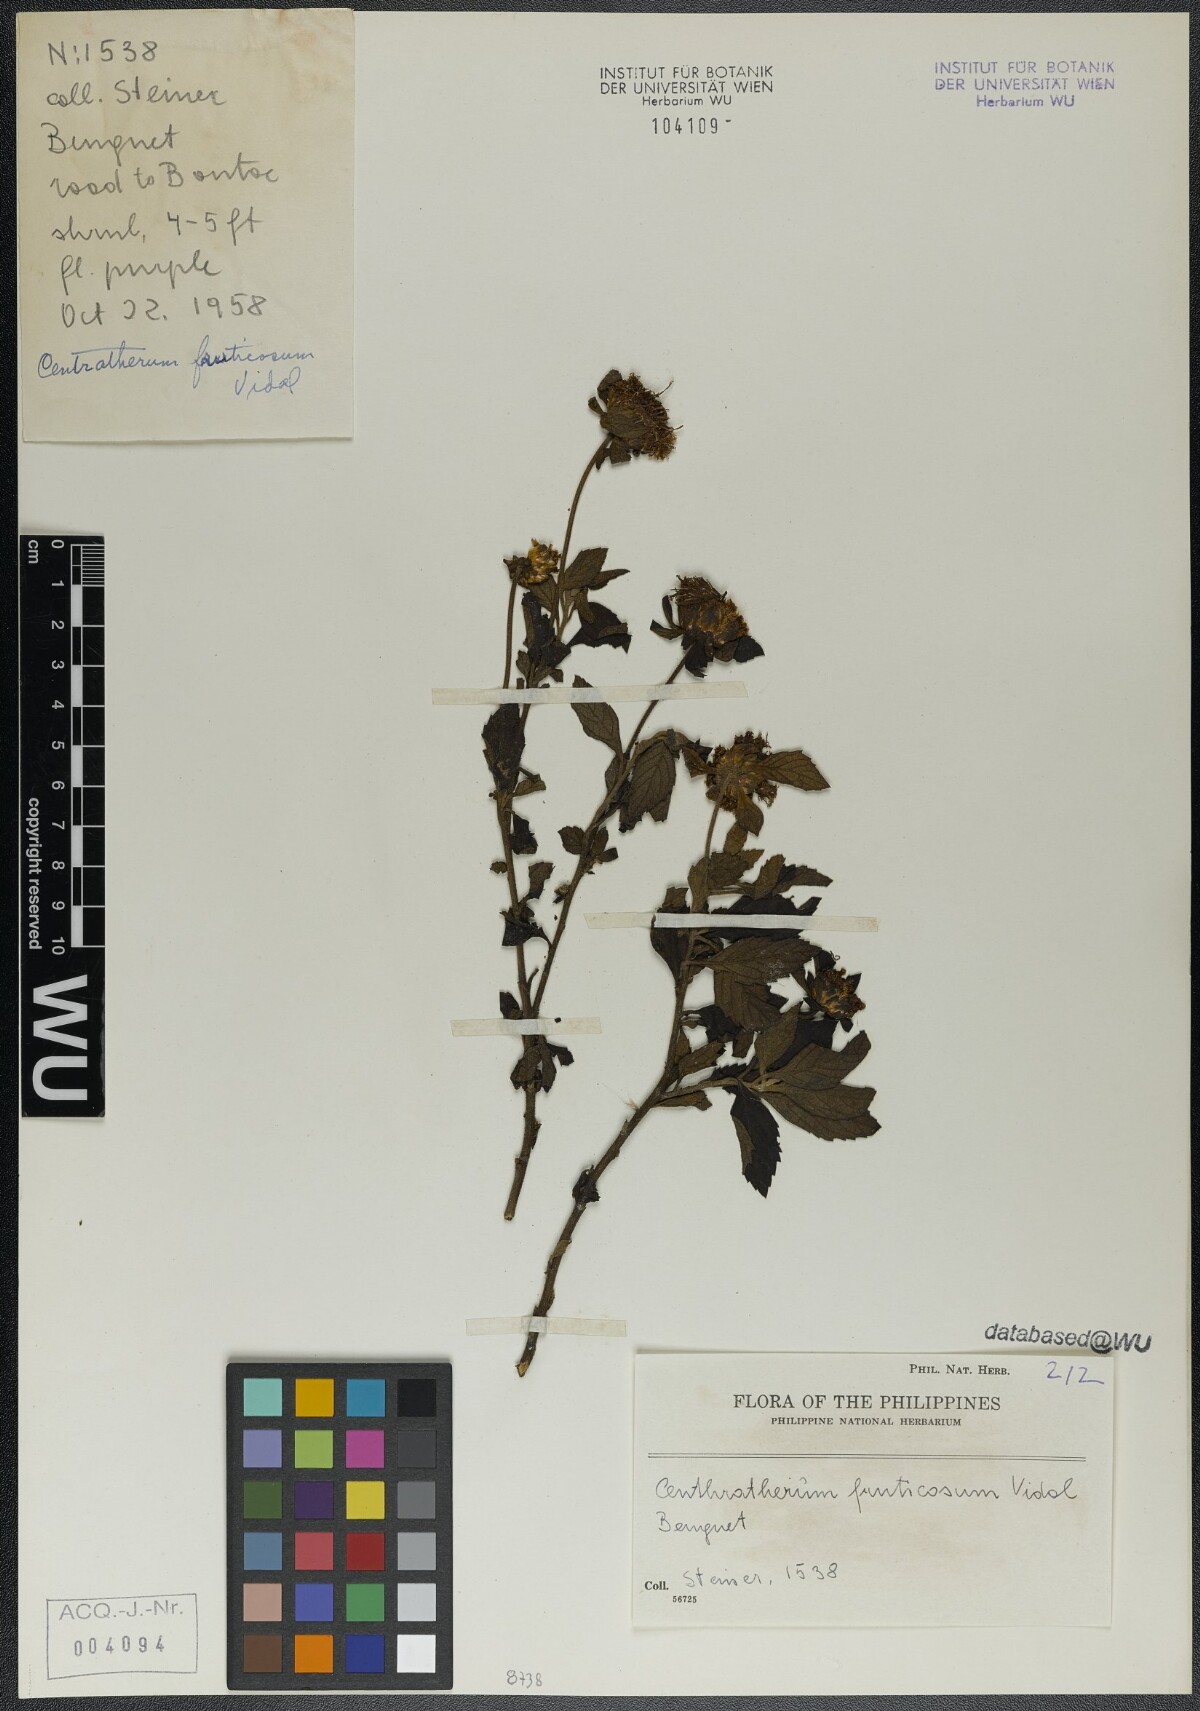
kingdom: Plantae
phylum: Tracheophyta
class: Magnoliopsida
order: Asterales
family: Asteraceae
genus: Centratherum
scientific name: Centratherum punctatum
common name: Larkdaisy
